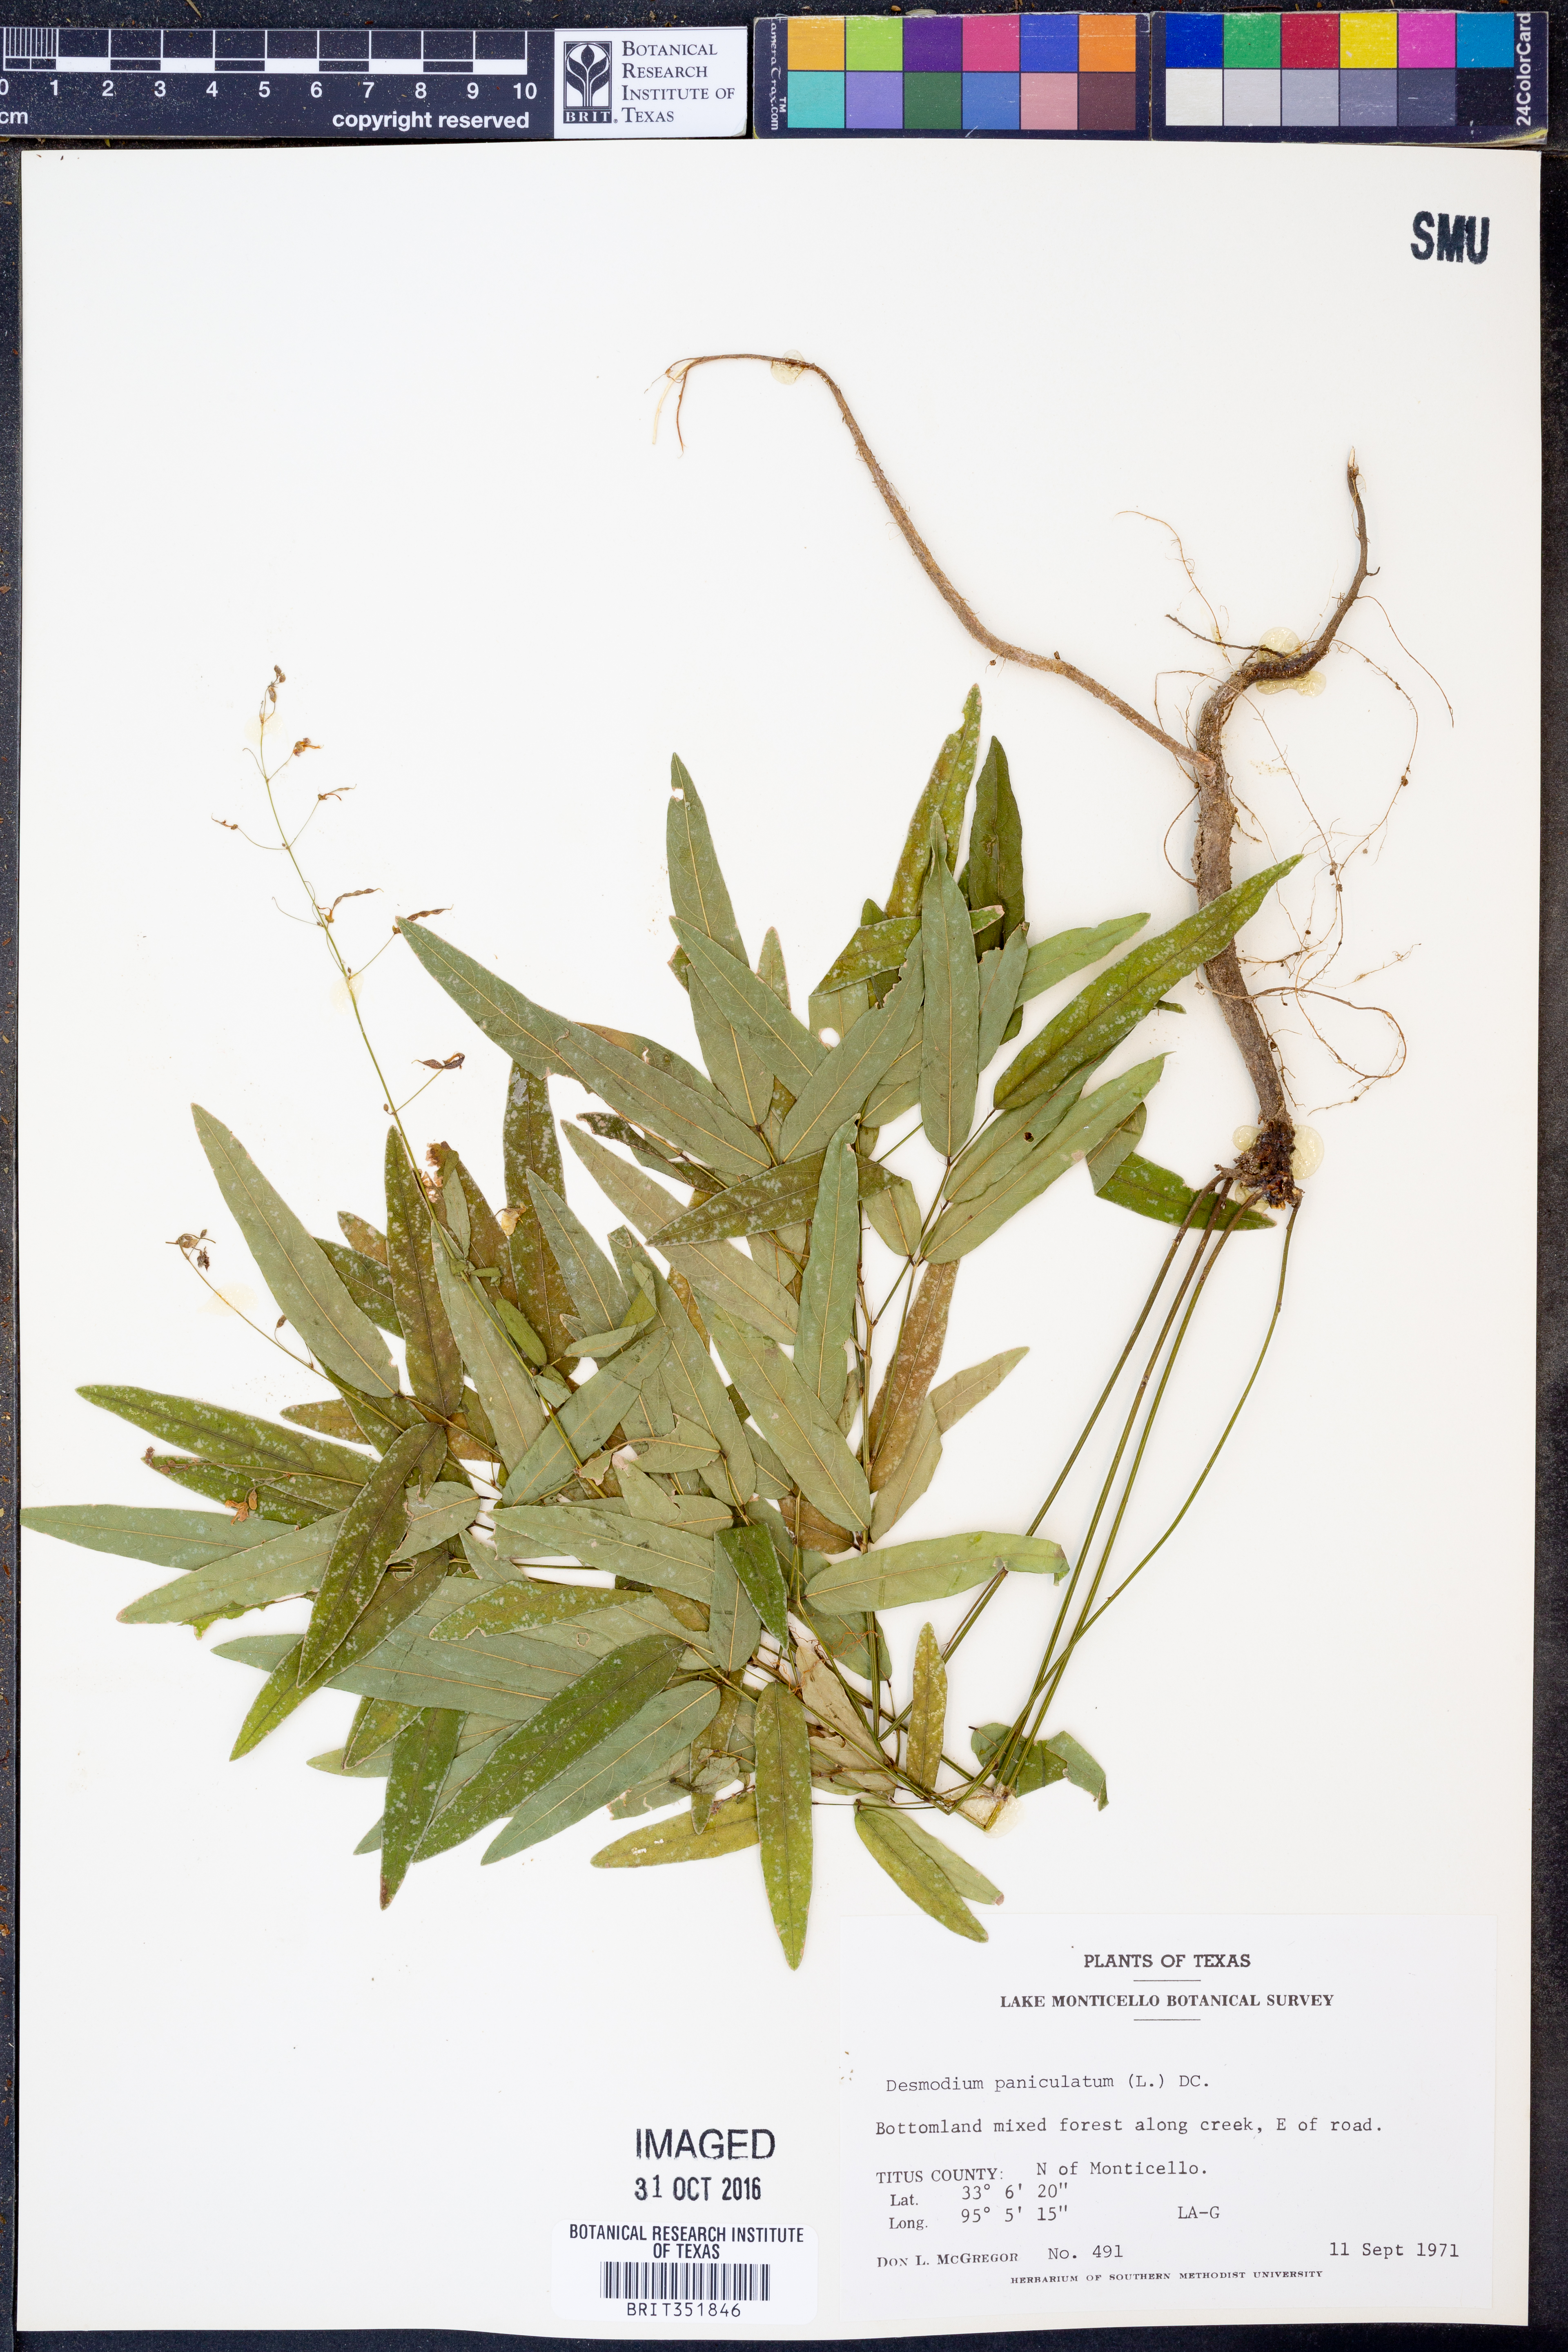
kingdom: Plantae
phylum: Tracheophyta
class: Magnoliopsida
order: Fabales
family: Fabaceae
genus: Desmodium
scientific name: Desmodium paniculatum
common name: Panicled tick-clover
